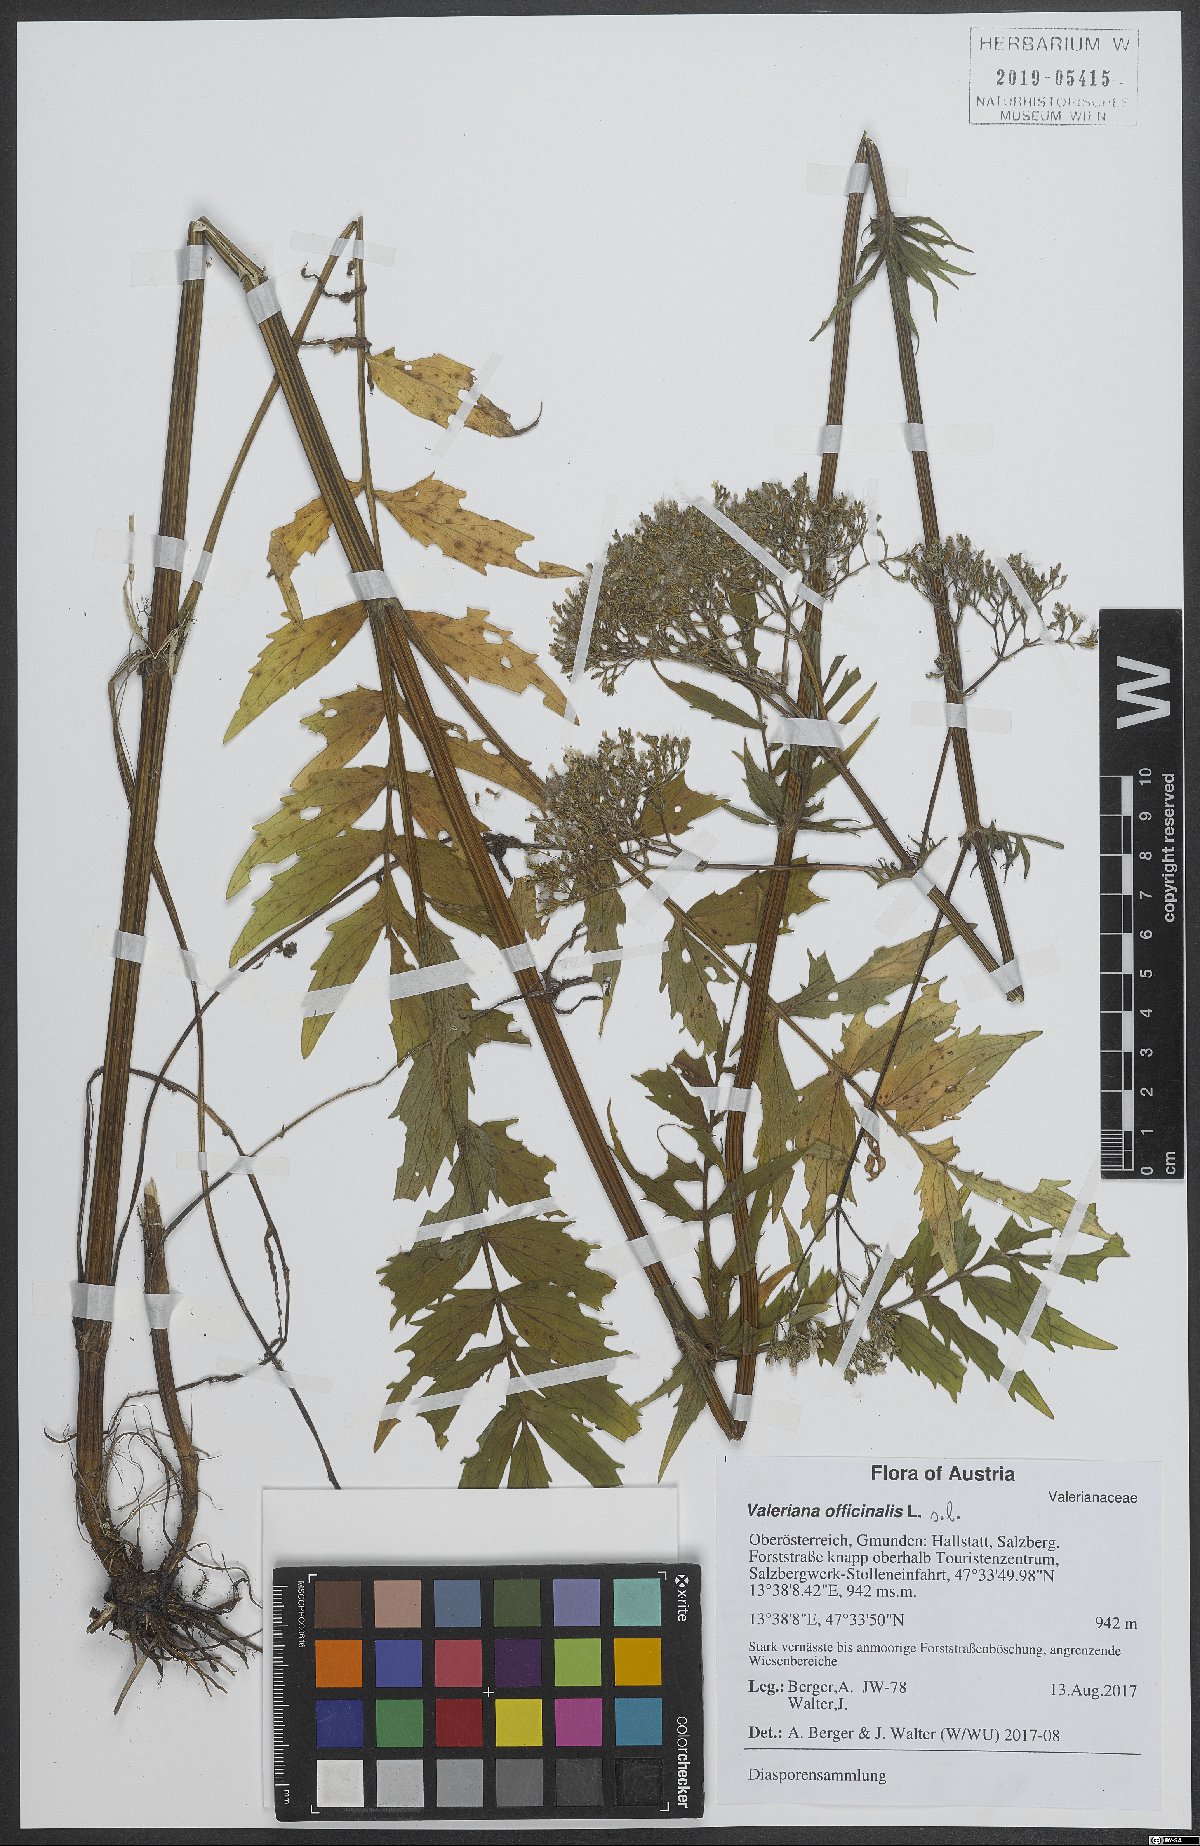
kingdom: Plantae
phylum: Tracheophyta
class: Magnoliopsida
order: Dipsacales
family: Caprifoliaceae
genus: Valeriana
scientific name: Valeriana officinalis
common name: Common valerian
